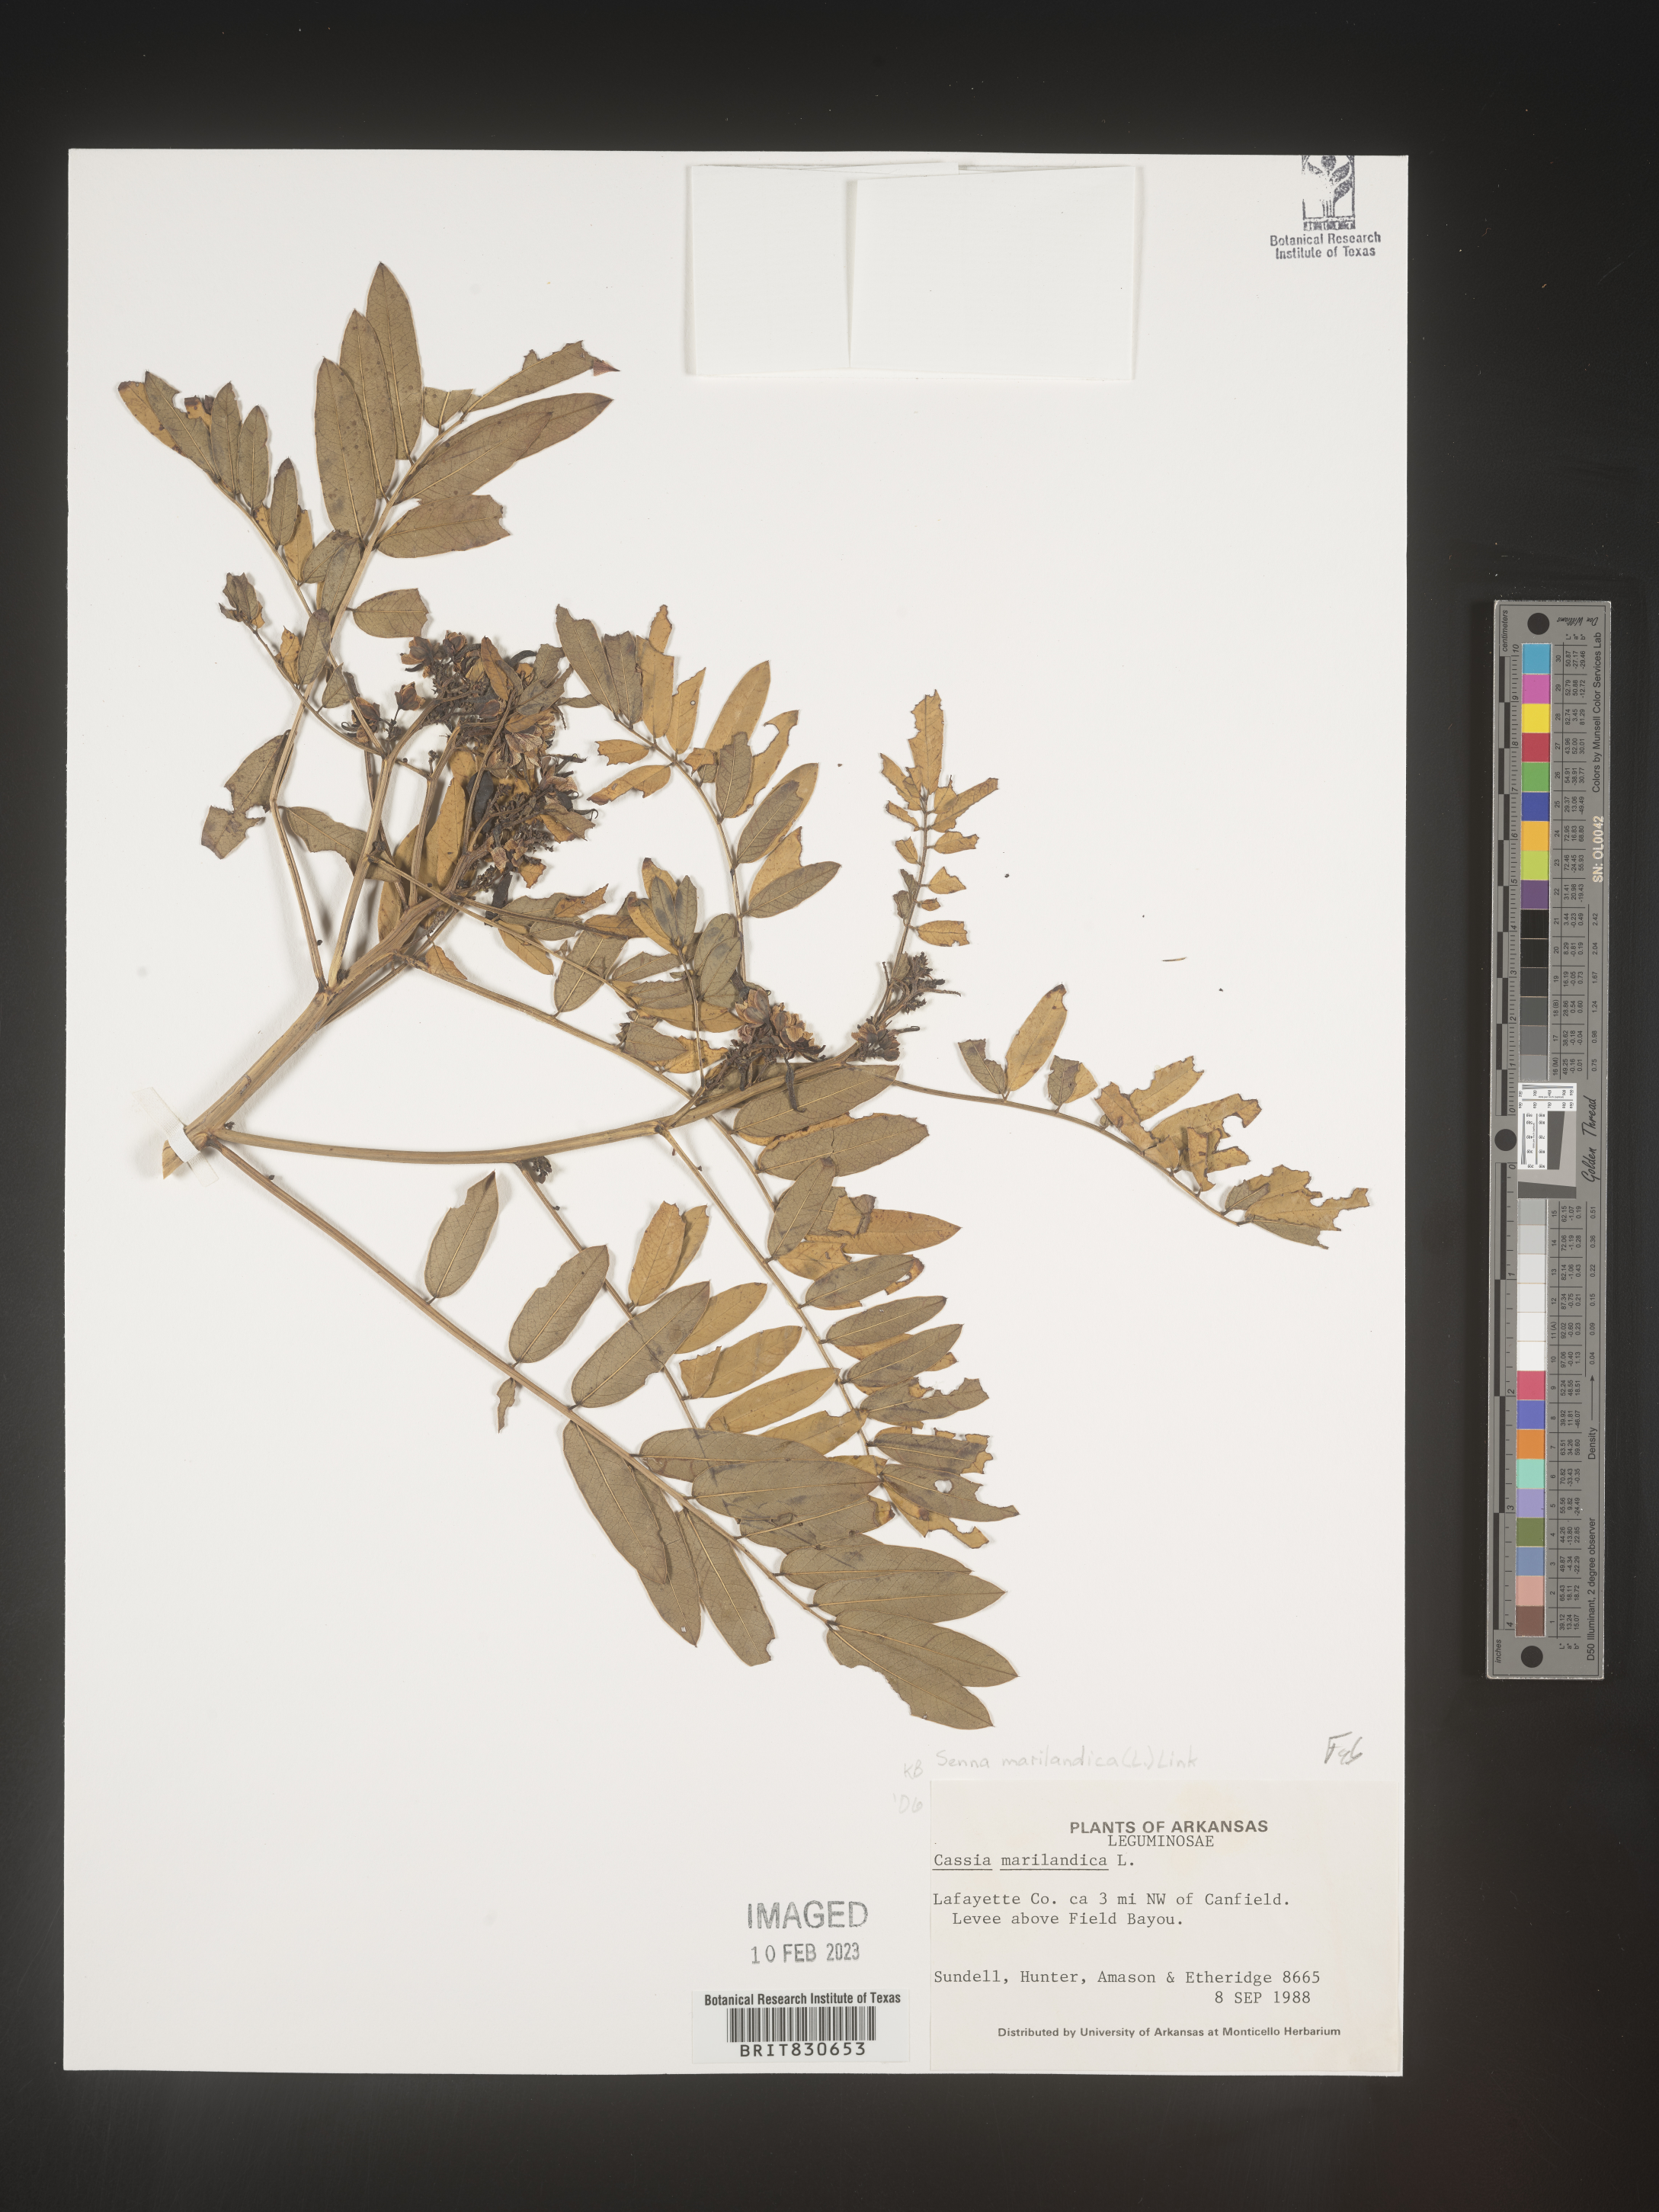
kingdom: Plantae
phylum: Tracheophyta
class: Magnoliopsida
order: Fabales
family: Fabaceae
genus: Senna
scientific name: Senna
